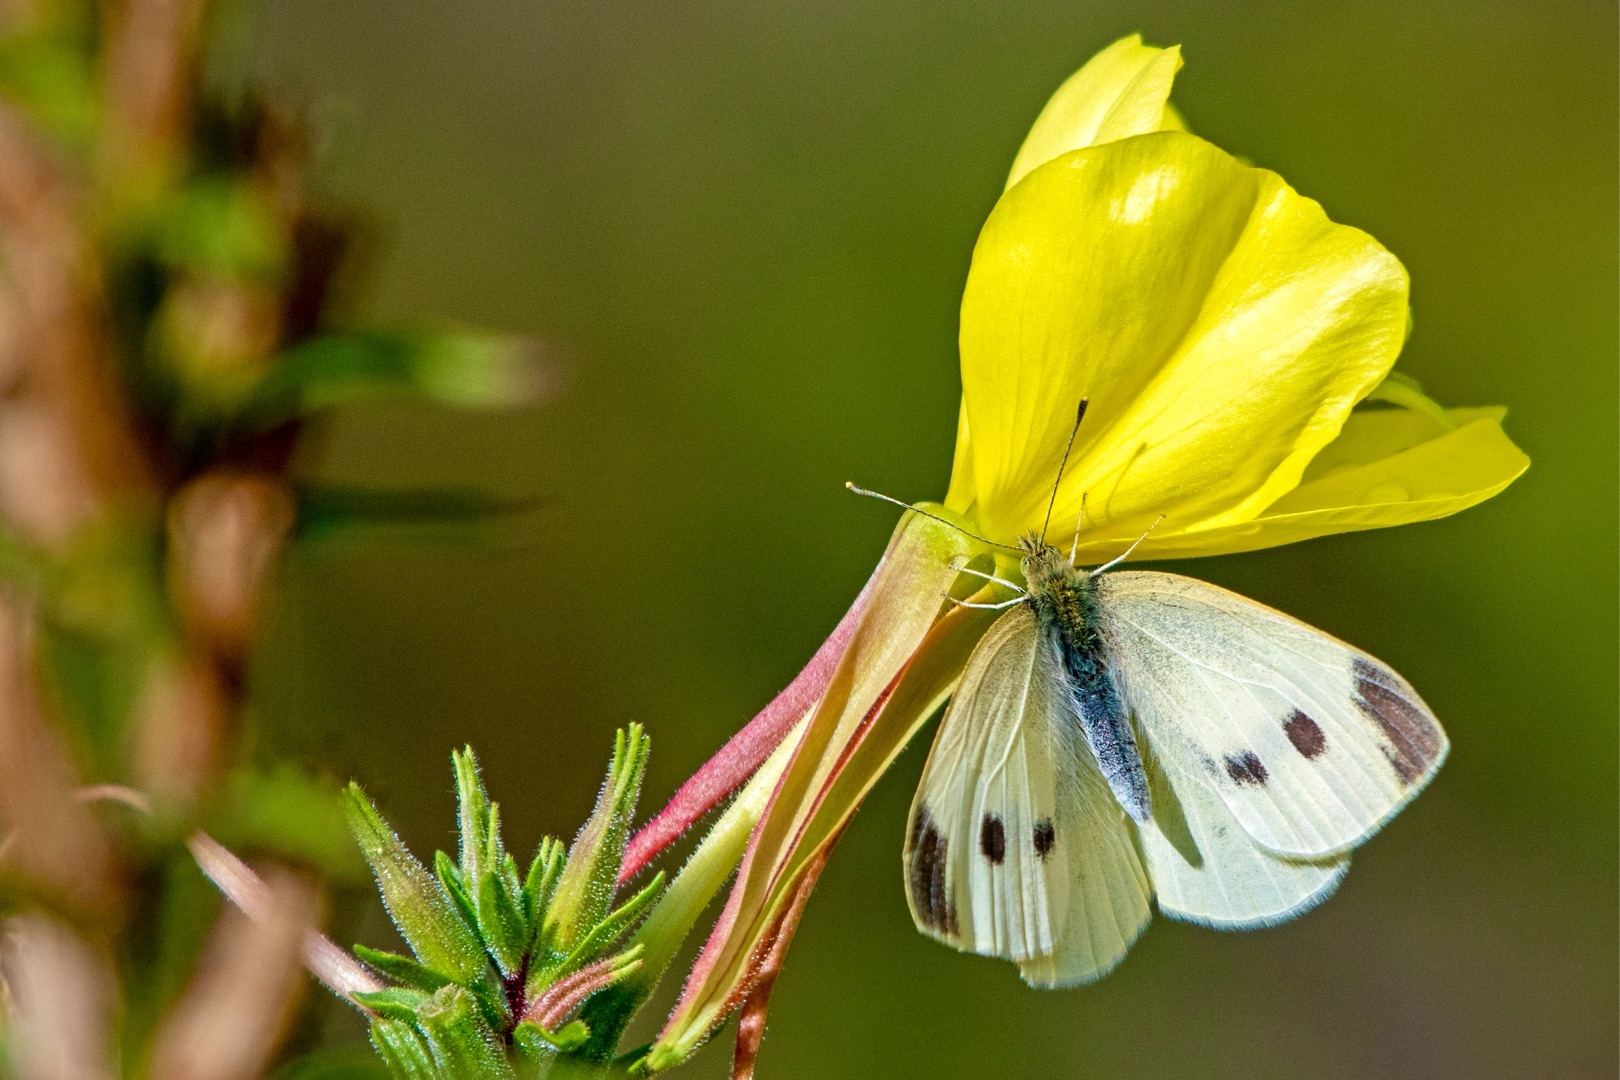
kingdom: Animalia
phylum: Arthropoda
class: Insecta
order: Lepidoptera
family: Pieridae
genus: Pieris
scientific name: Pieris rapae
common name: Lille kålsommerfugl
